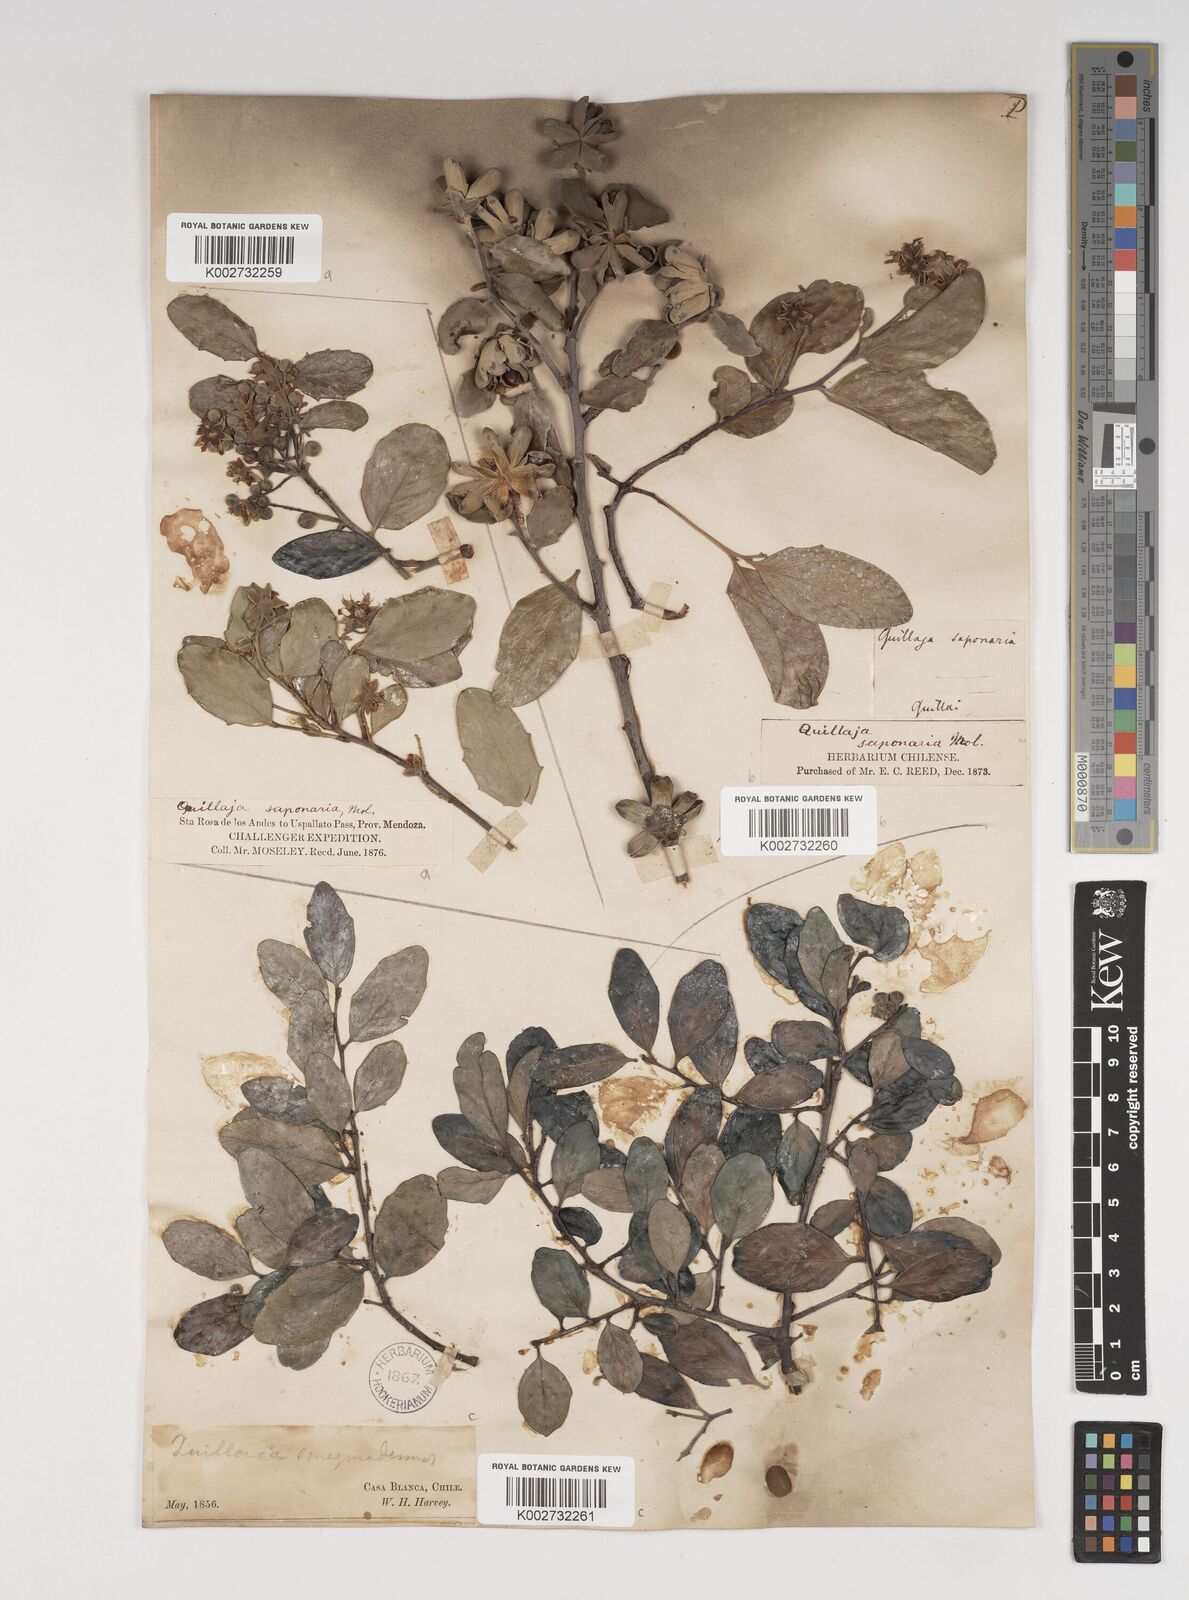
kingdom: Plantae
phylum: Tracheophyta
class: Magnoliopsida
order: Fabales
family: Quillajaceae
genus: Quillaja
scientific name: Quillaja saponaria
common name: Murillo's-bark
